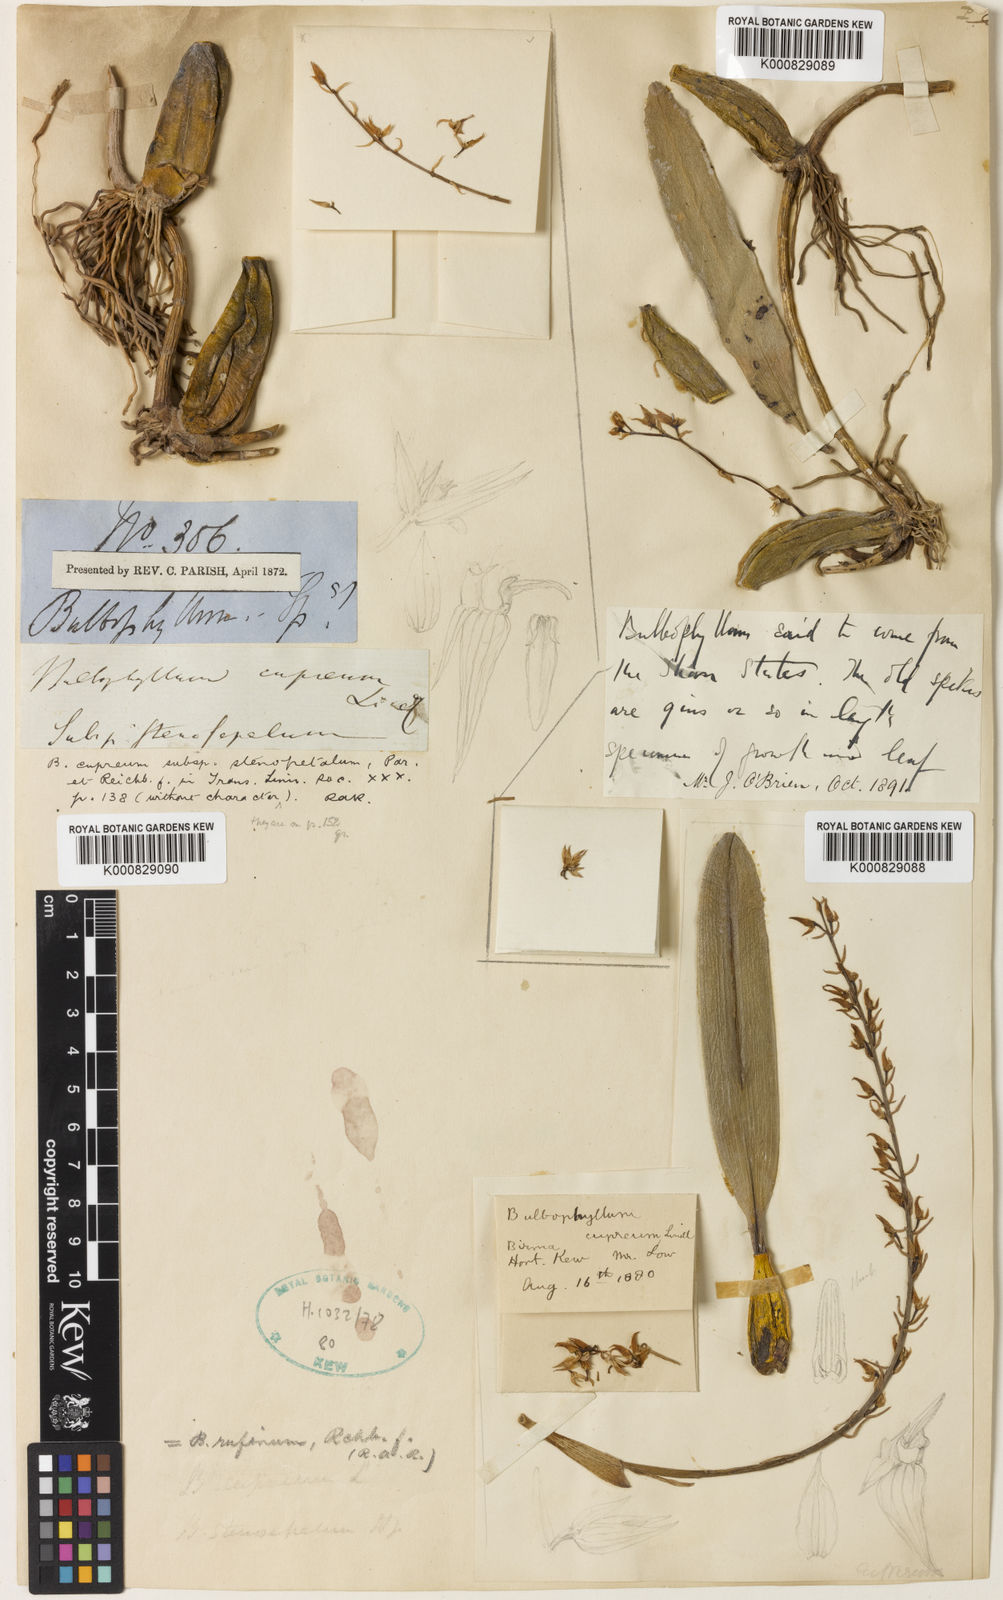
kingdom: Plantae
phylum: Tracheophyta
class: Liliopsida
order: Asparagales
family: Orchidaceae
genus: Bulbophyllum
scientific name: Bulbophyllum sandersonii
